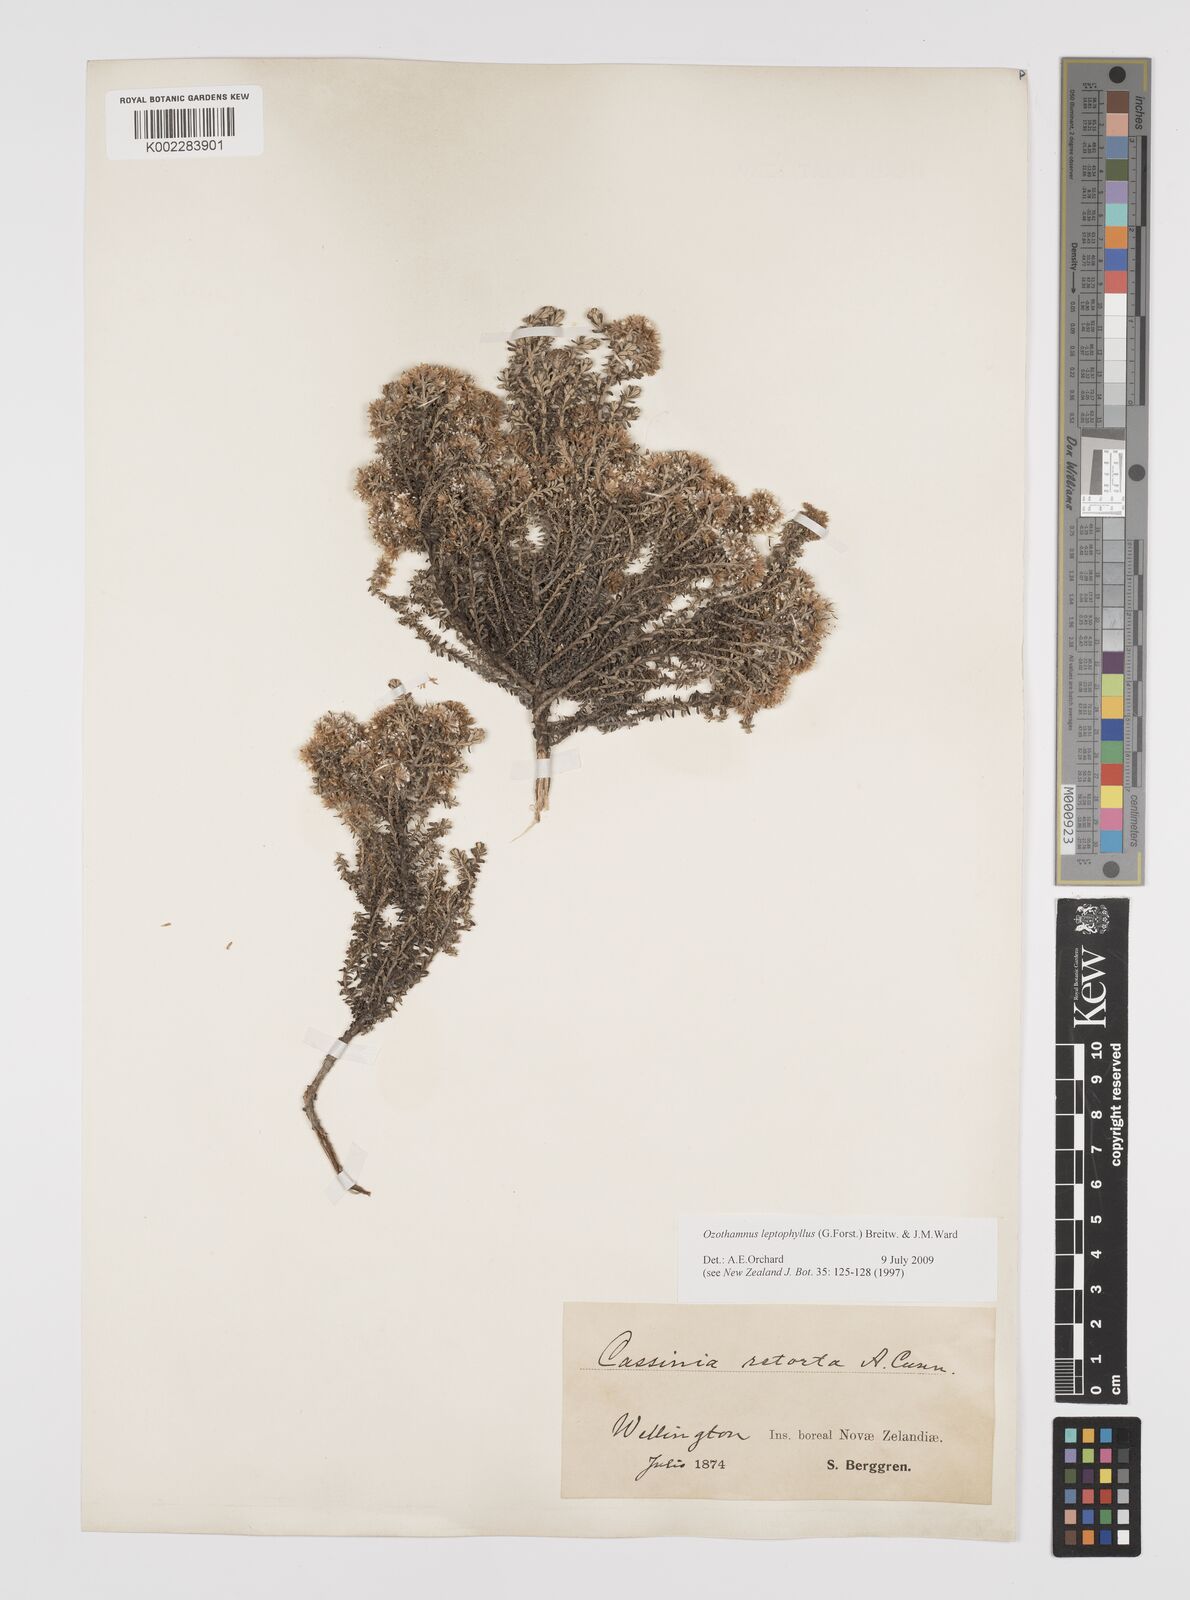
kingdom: Plantae
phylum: Tracheophyta
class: Magnoliopsida
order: Asterales
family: Asteraceae
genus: Ozothamnus
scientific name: Ozothamnus leptophyllus
